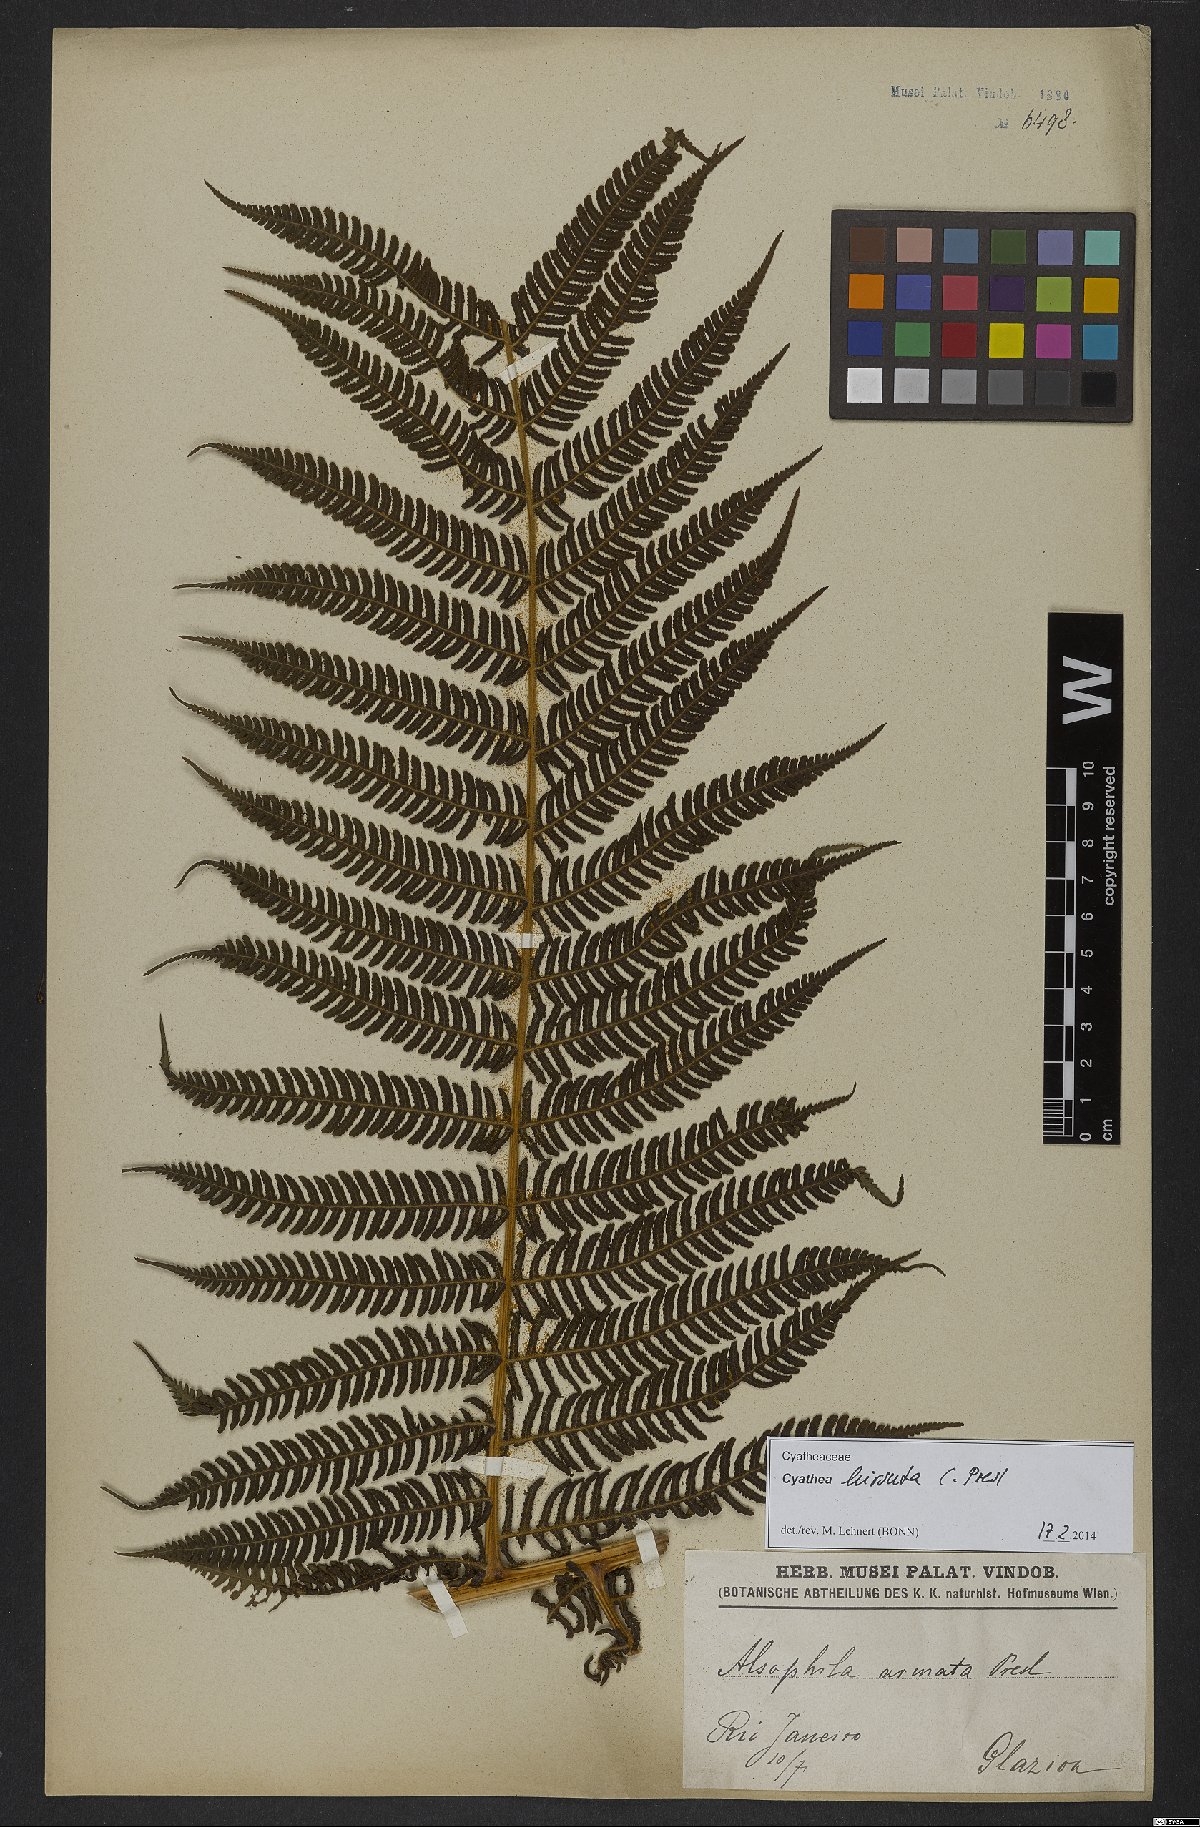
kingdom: Plantae
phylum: Tracheophyta
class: Polypodiopsida
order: Cyatheales
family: Cyatheaceae
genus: Cyathea
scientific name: Cyathea hirsuta
